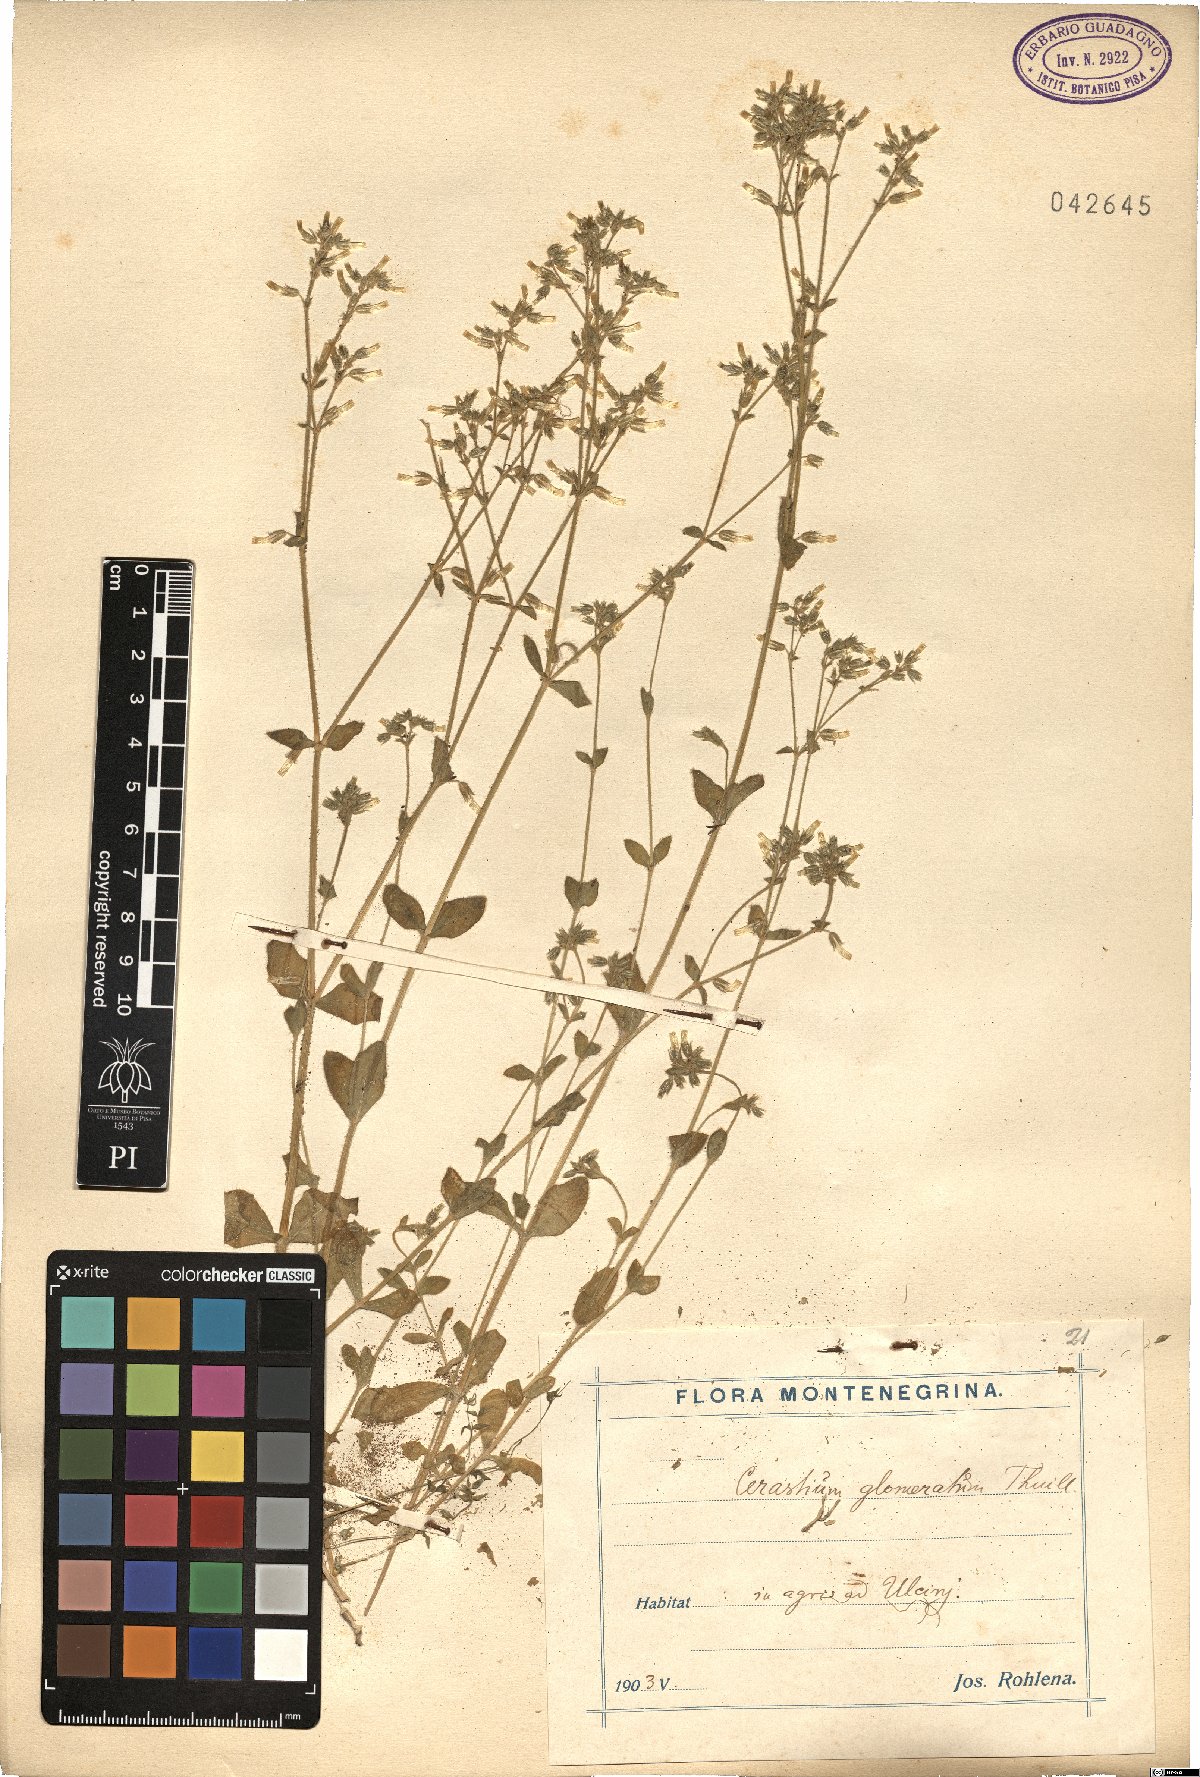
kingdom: Plantae
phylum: Tracheophyta
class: Magnoliopsida
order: Caryophyllales
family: Caryophyllaceae
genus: Cerastium
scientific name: Cerastium glomeratum
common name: Sticky chickweed
